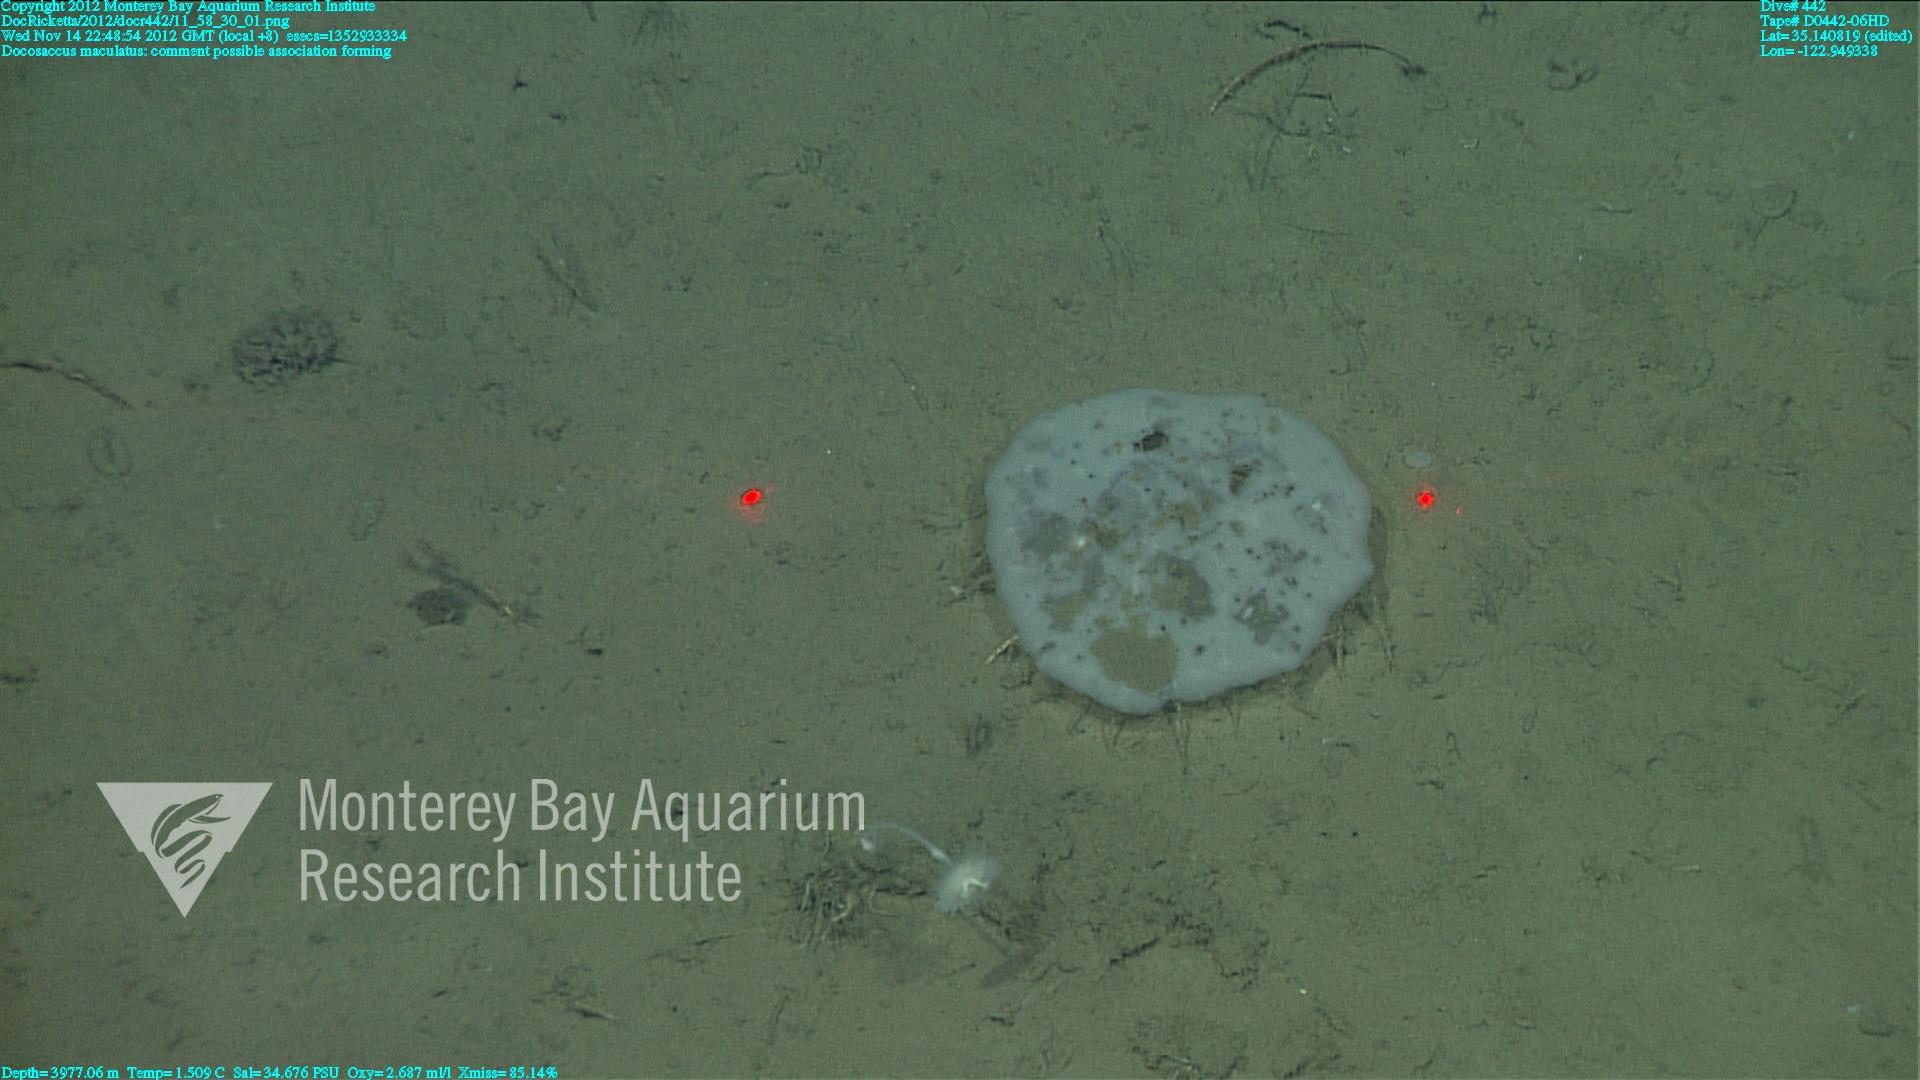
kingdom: Animalia
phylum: Porifera
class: Hexactinellida
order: Lyssacinosida
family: Euplectellidae
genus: Docosaccus
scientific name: Docosaccus maculatus
